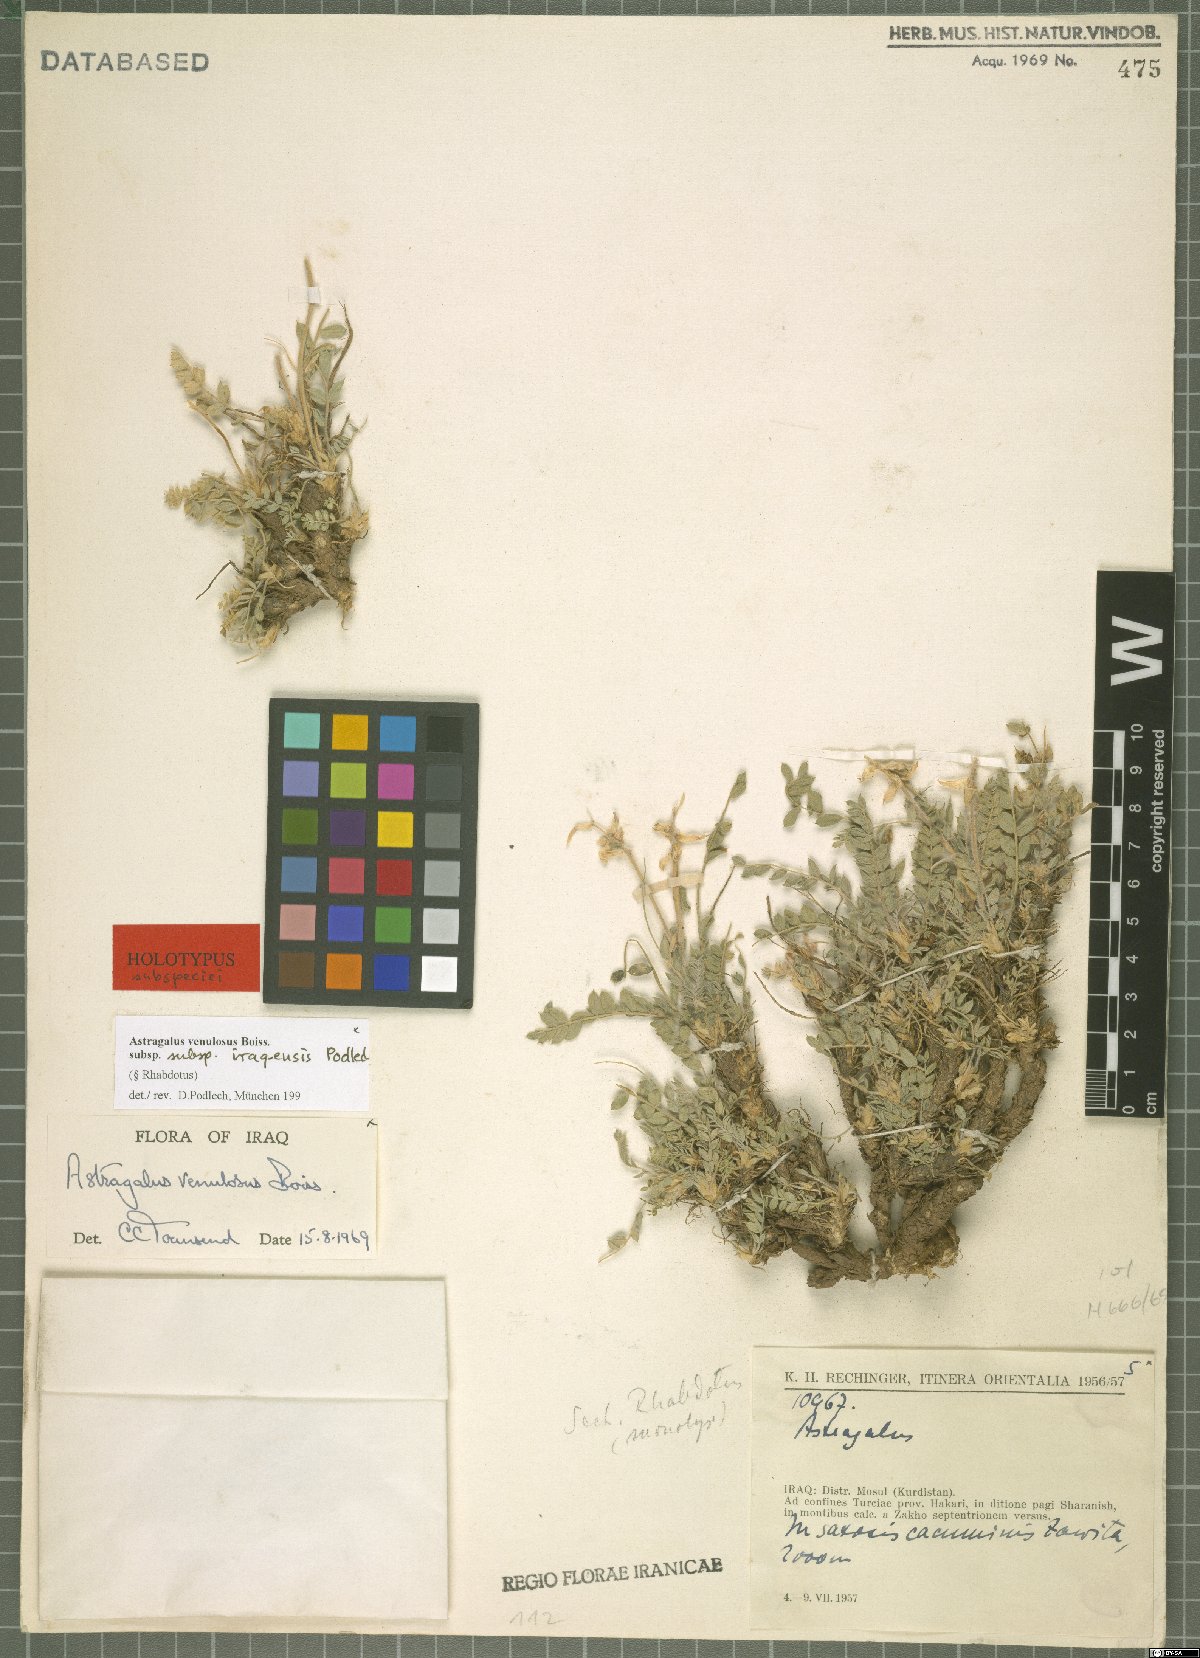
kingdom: Plantae
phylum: Tracheophyta
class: Magnoliopsida
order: Fabales
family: Fabaceae
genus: Astragalus
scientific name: Astragalus venulosus
